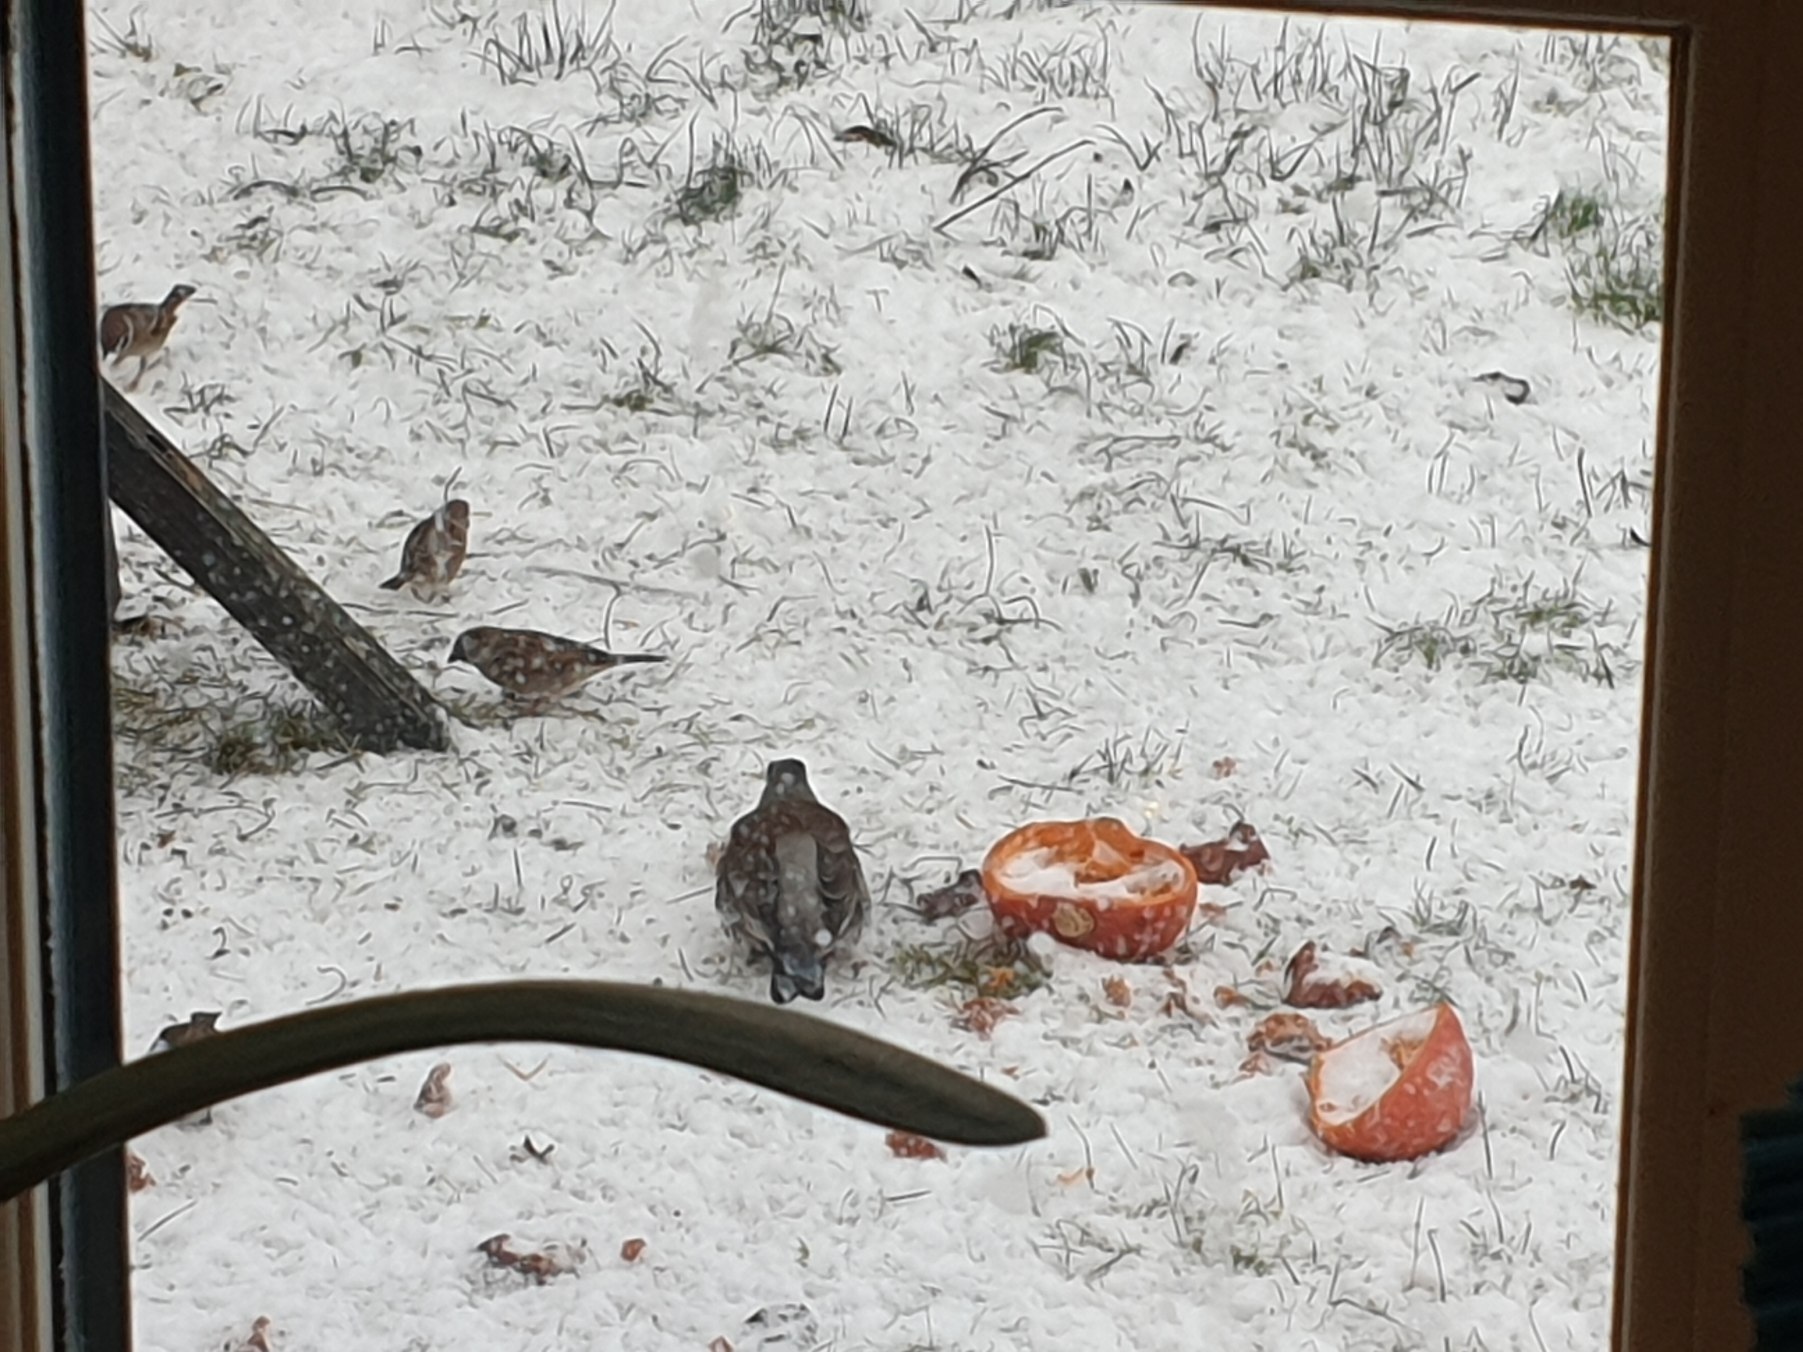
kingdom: Animalia
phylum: Chordata
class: Aves
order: Passeriformes
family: Turdidae
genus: Turdus
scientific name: Turdus pilaris
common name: Sjagger
